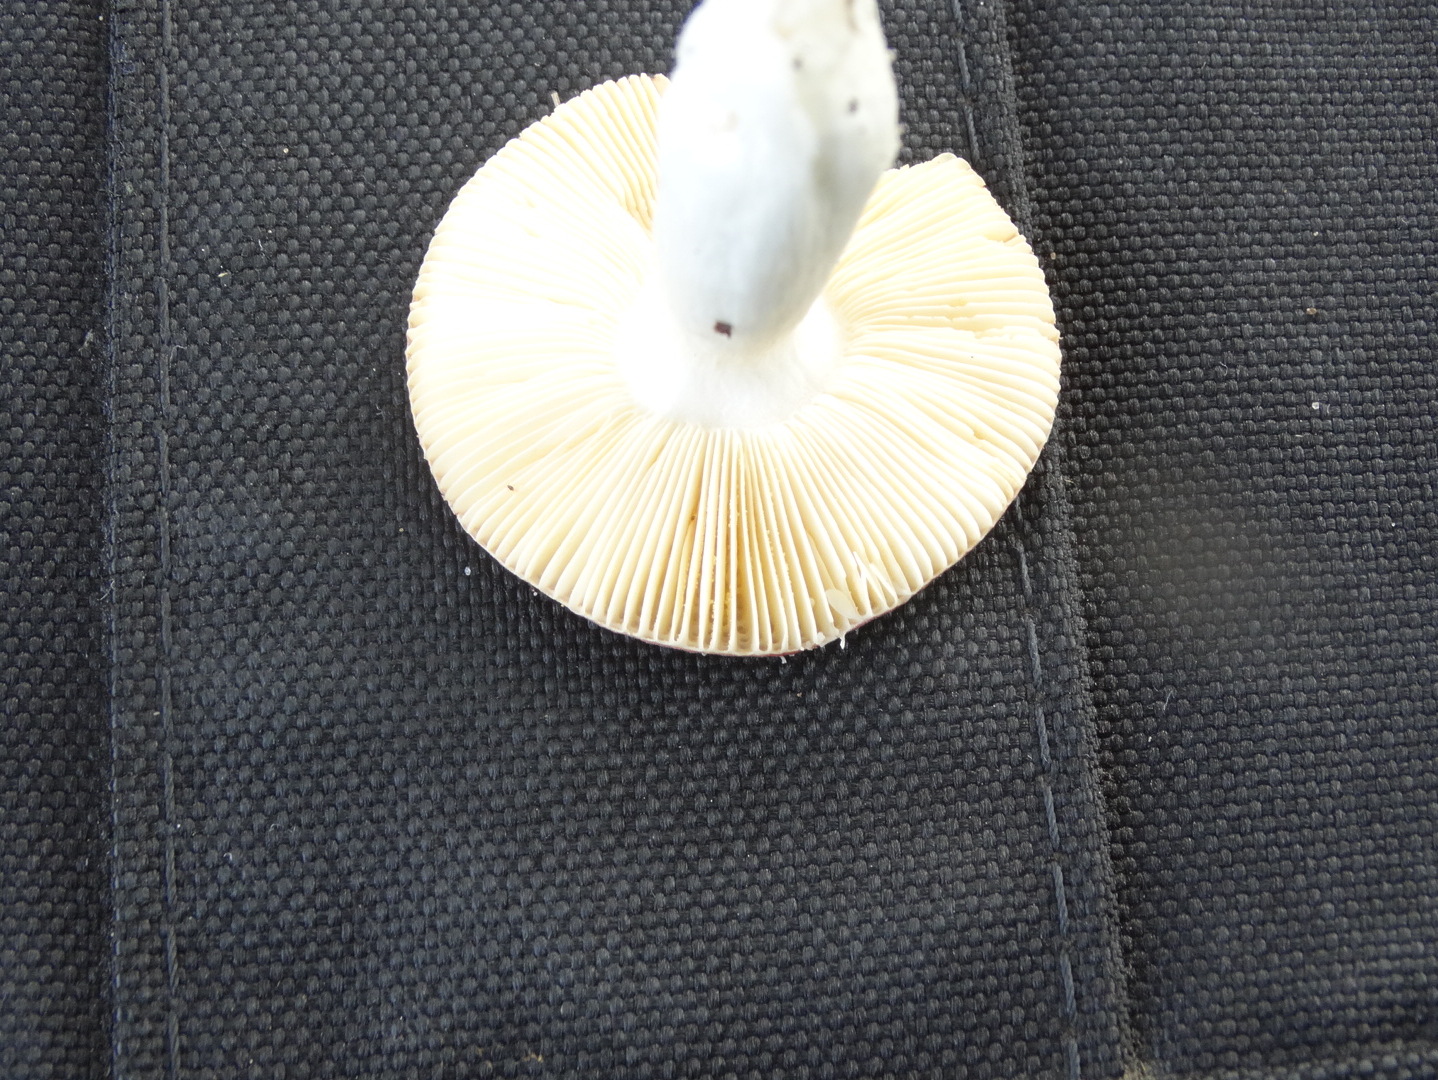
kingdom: Fungi
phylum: Basidiomycota
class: Agaricomycetes
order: Russulales
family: Russulaceae
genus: Russula
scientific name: Russula cessans
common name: fyrre-skørhat
